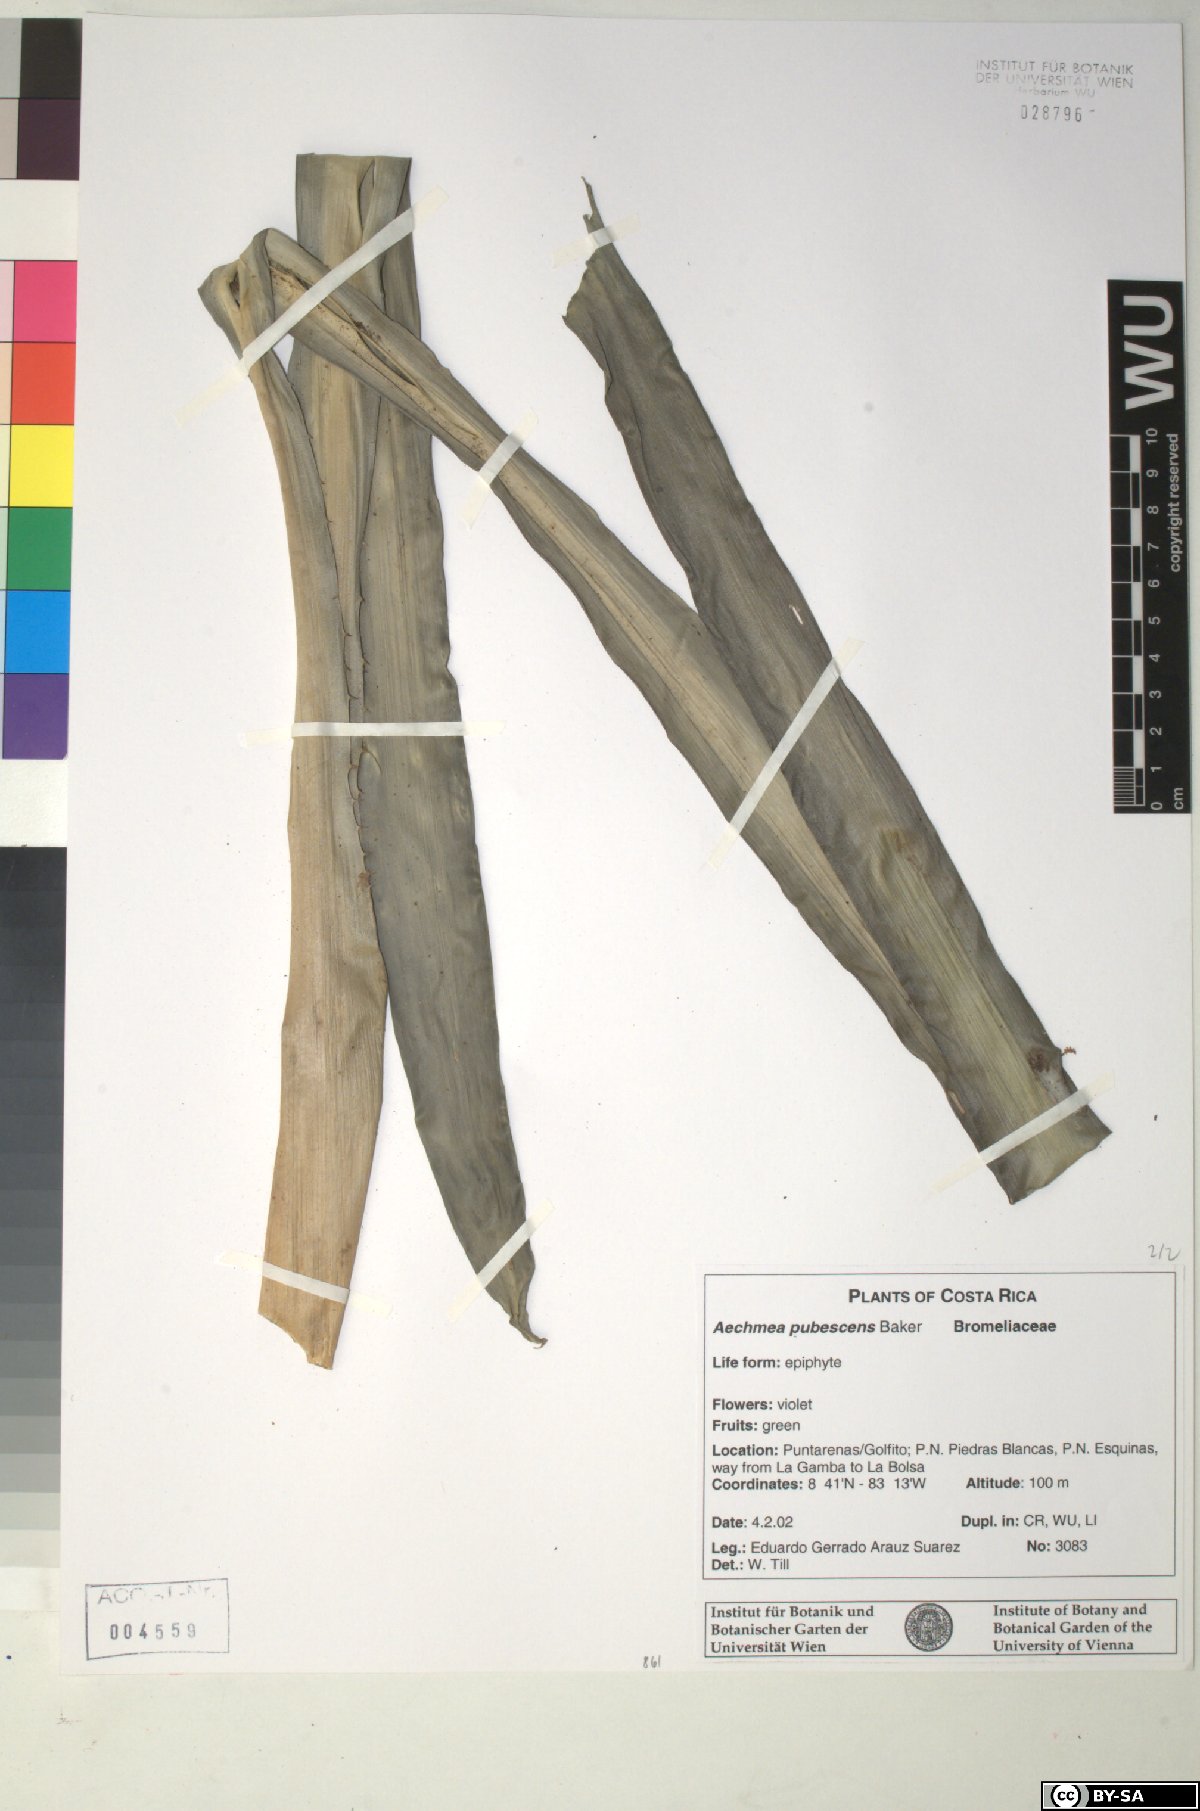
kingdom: Plantae
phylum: Tracheophyta
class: Liliopsida
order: Poales
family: Bromeliaceae
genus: Aechmea
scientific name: Aechmea pubescens
